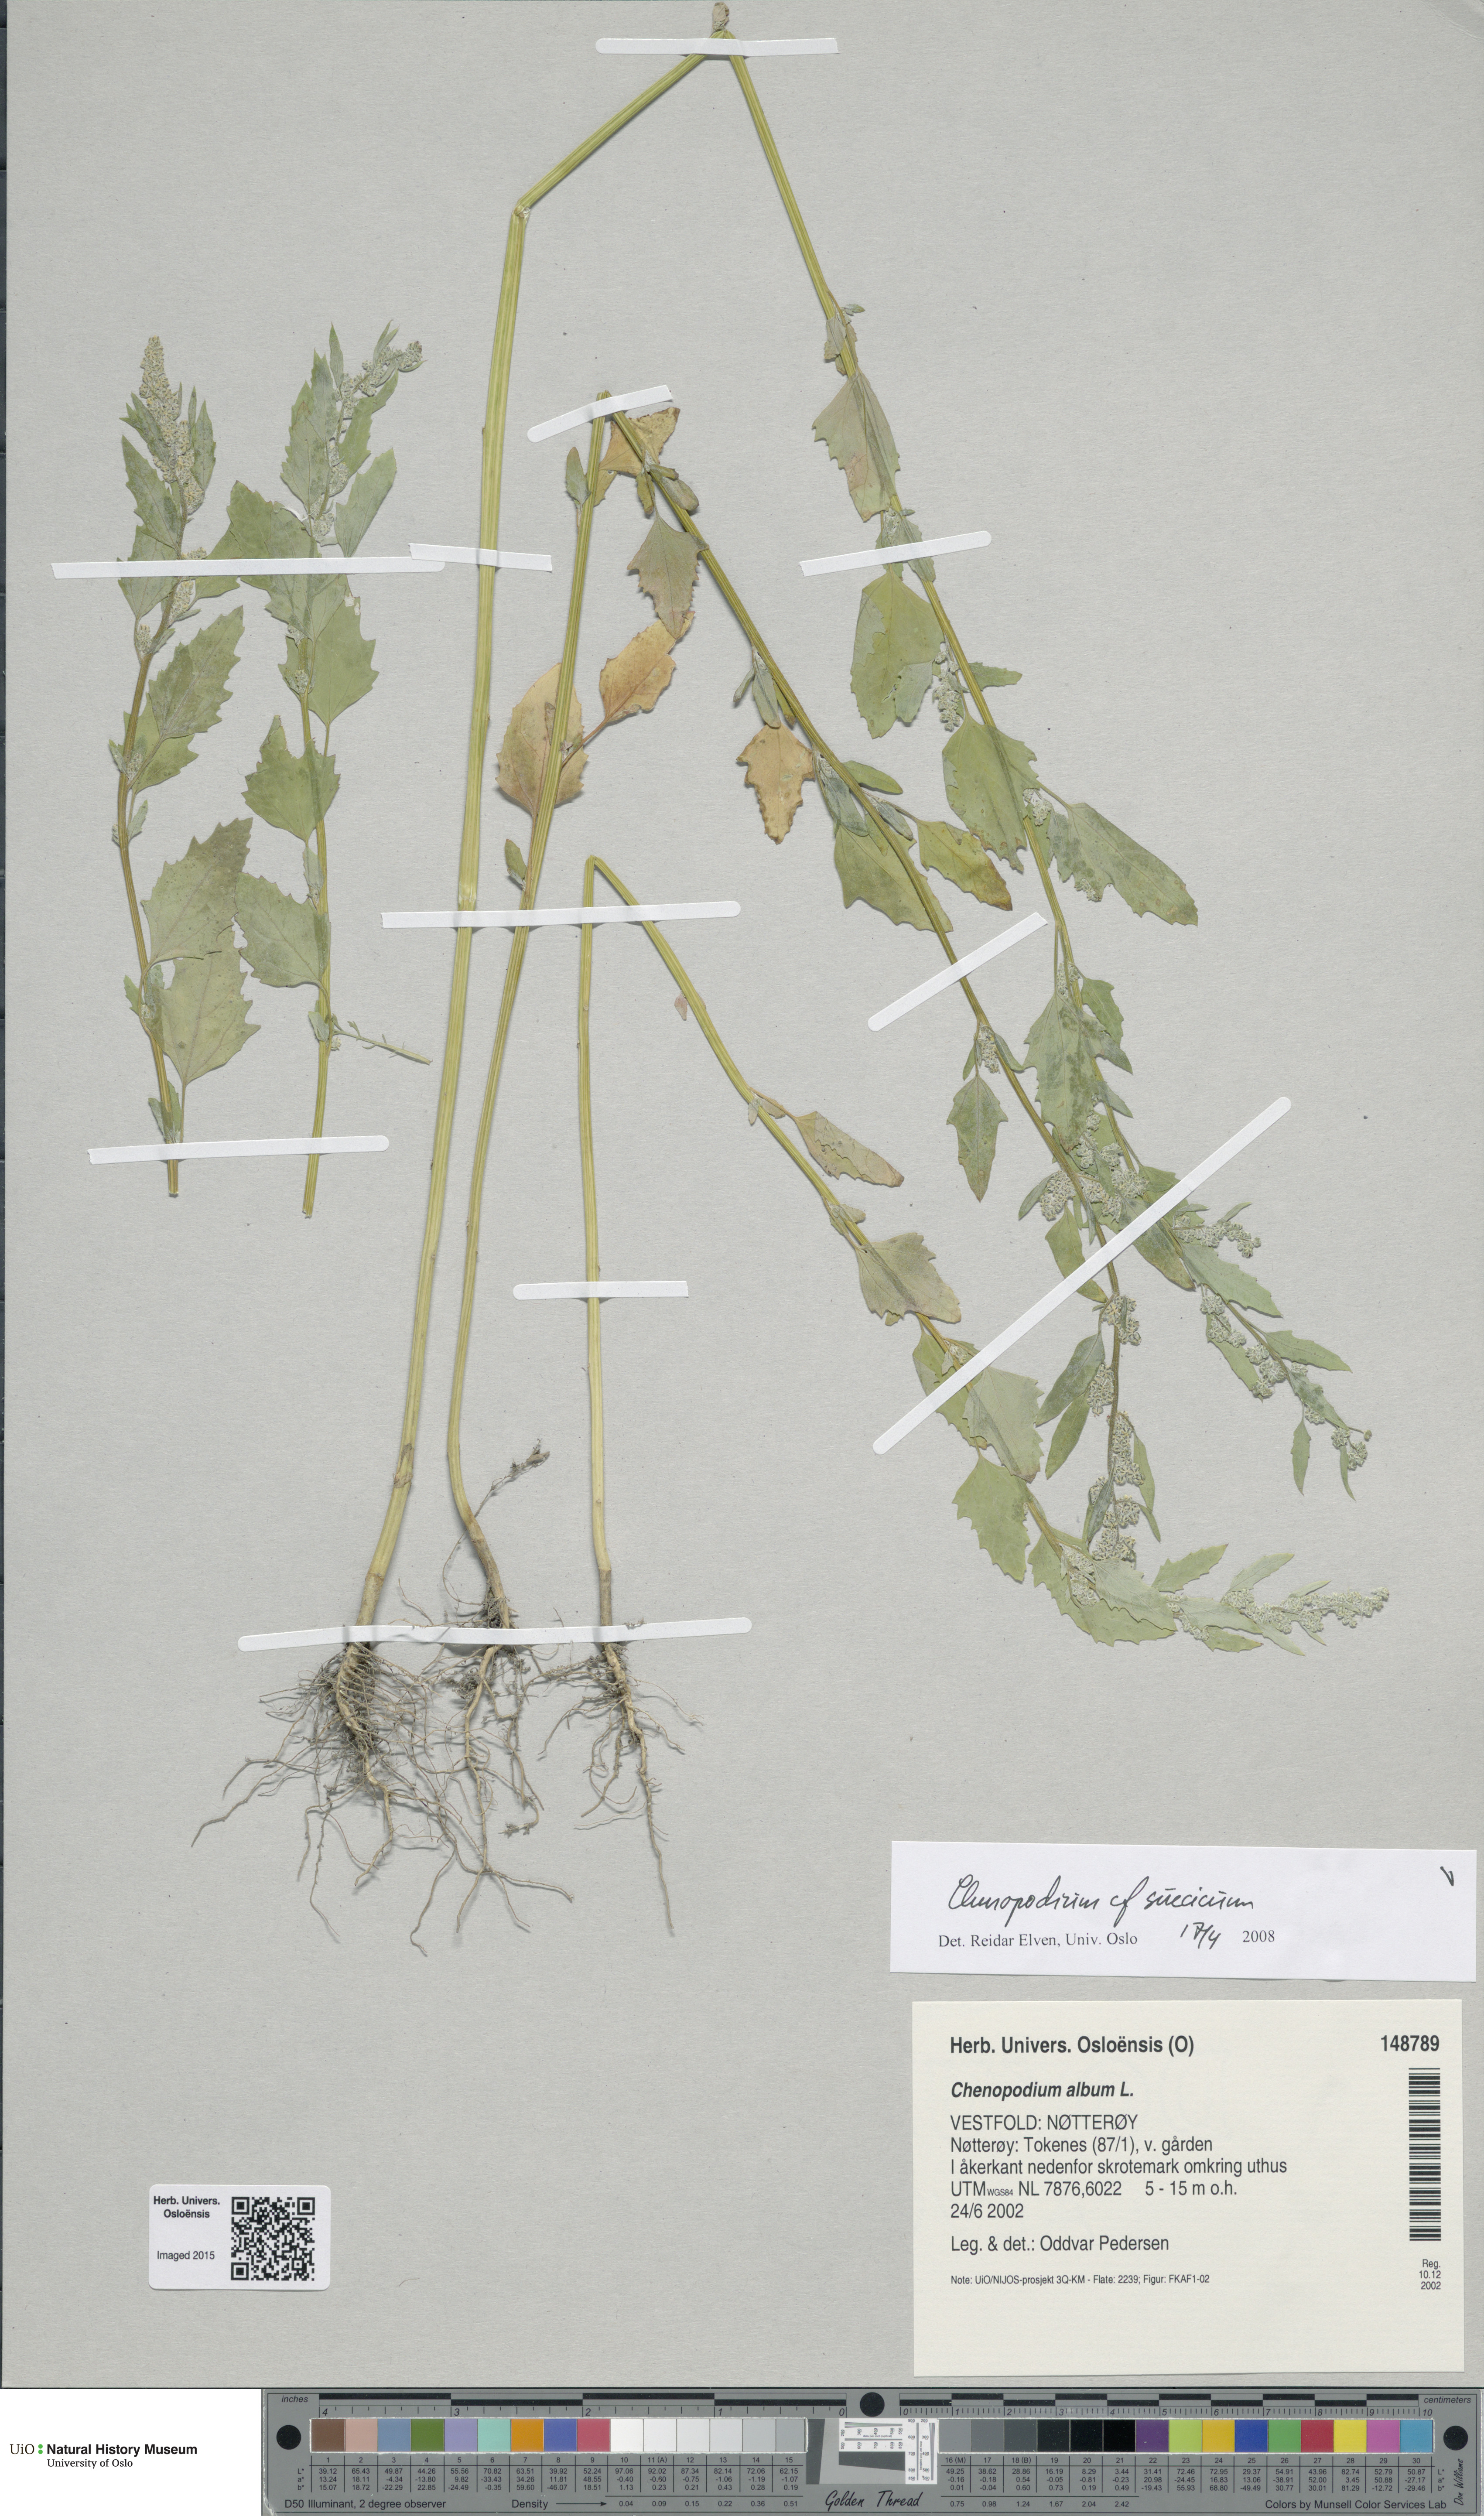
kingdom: Plantae
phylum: Tracheophyta
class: Magnoliopsida
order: Caryophyllales
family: Amaranthaceae
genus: Chenopodium
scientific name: Chenopodium suecicum
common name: Swedish goosefoot
